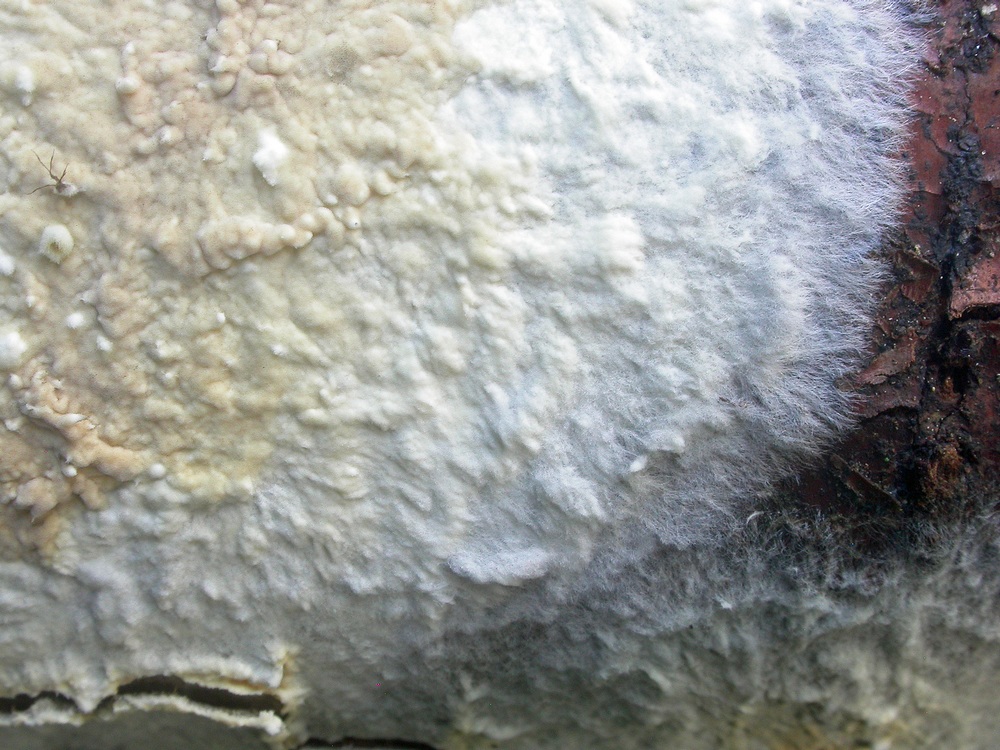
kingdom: Fungi
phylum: Basidiomycota
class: Agaricomycetes
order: Polyporales
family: Irpicaceae
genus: Efibula
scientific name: Efibula tuberculata
